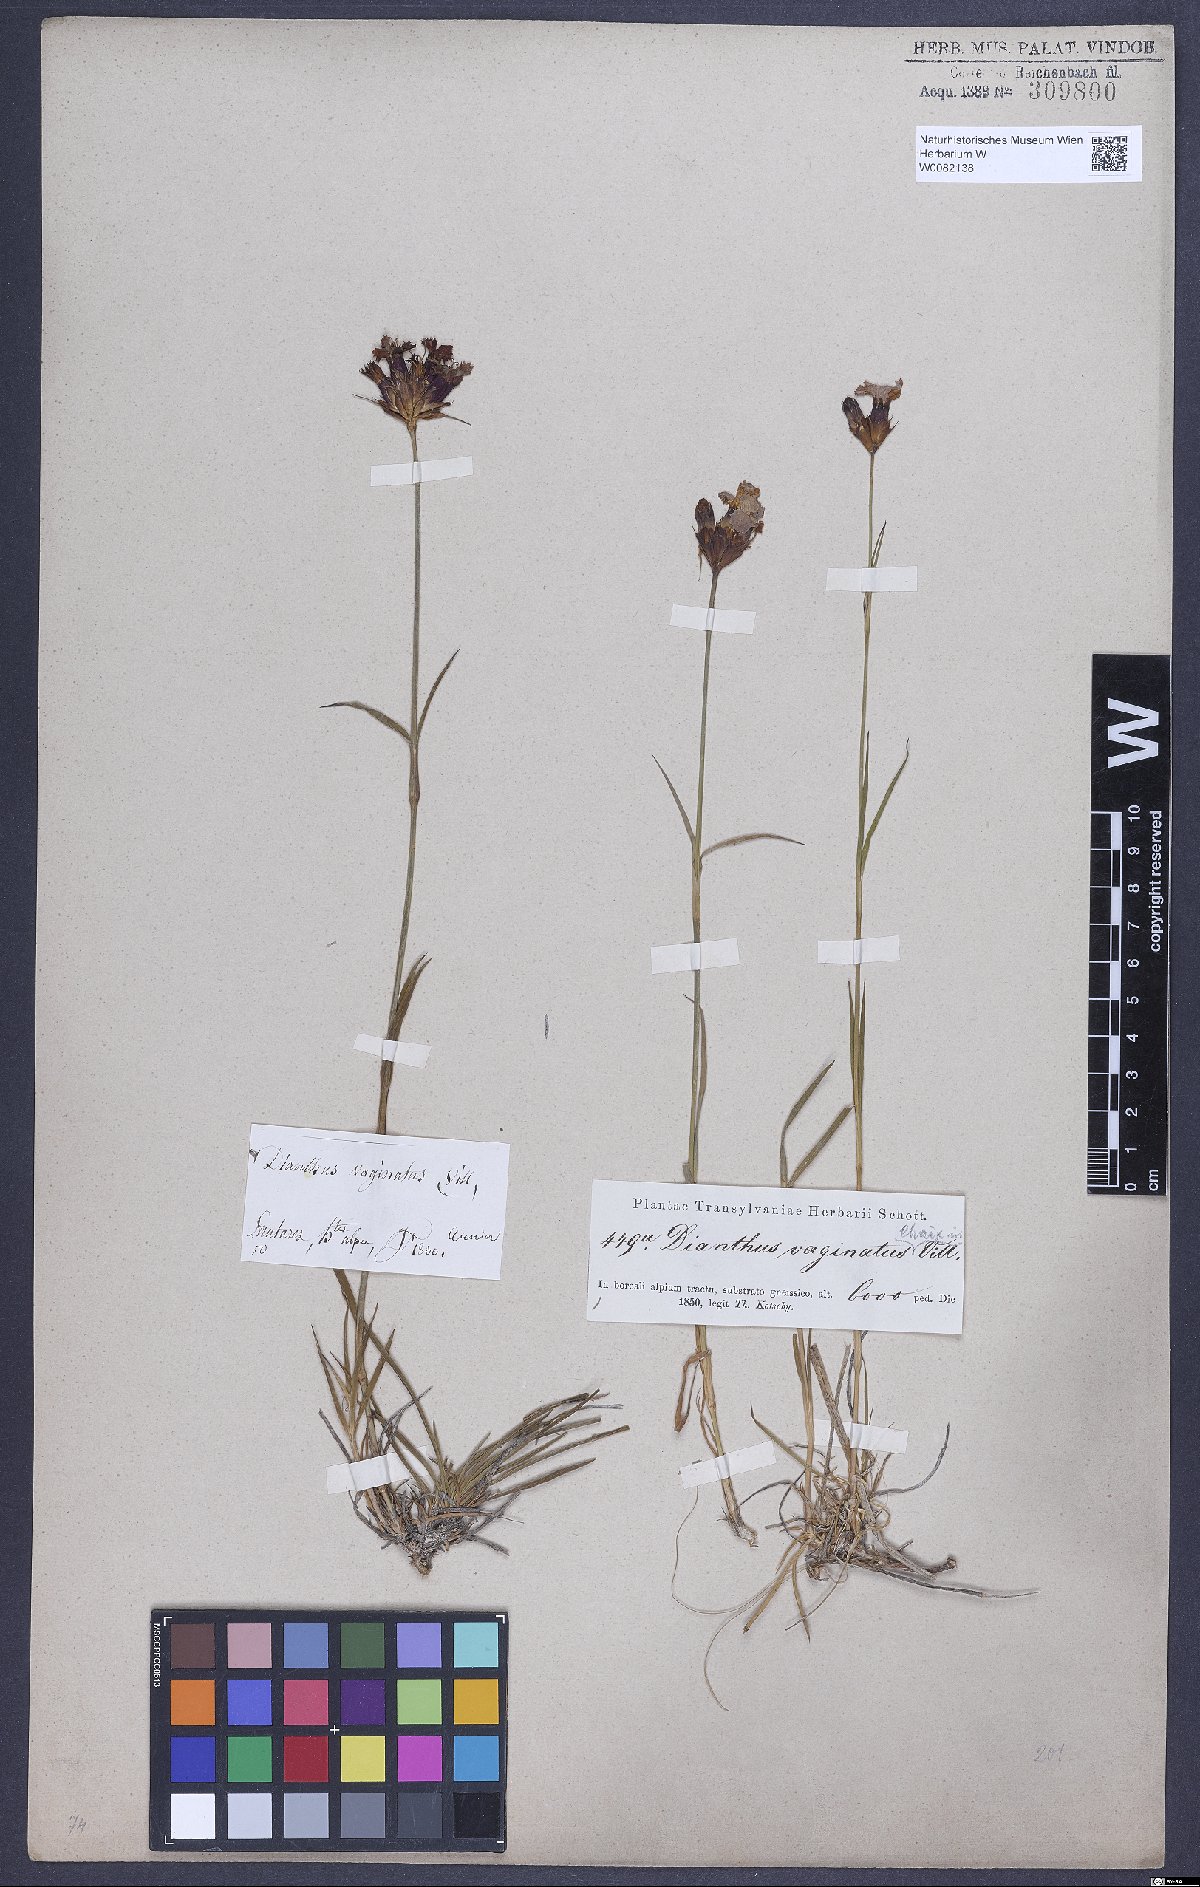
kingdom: Plantae
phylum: Tracheophyta
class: Magnoliopsida
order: Caryophyllales
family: Caryophyllaceae
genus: Dianthus
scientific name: Dianthus carthusianorum
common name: Carthusian pink
